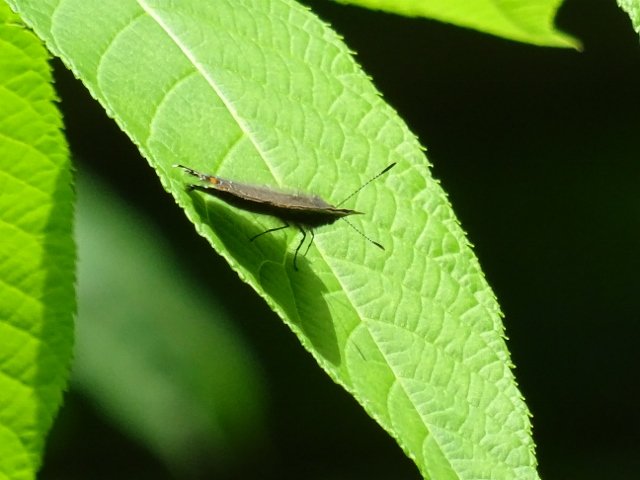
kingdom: Animalia
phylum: Arthropoda
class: Insecta
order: Lepidoptera
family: Lycaenidae
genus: Satyrium
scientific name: Satyrium
